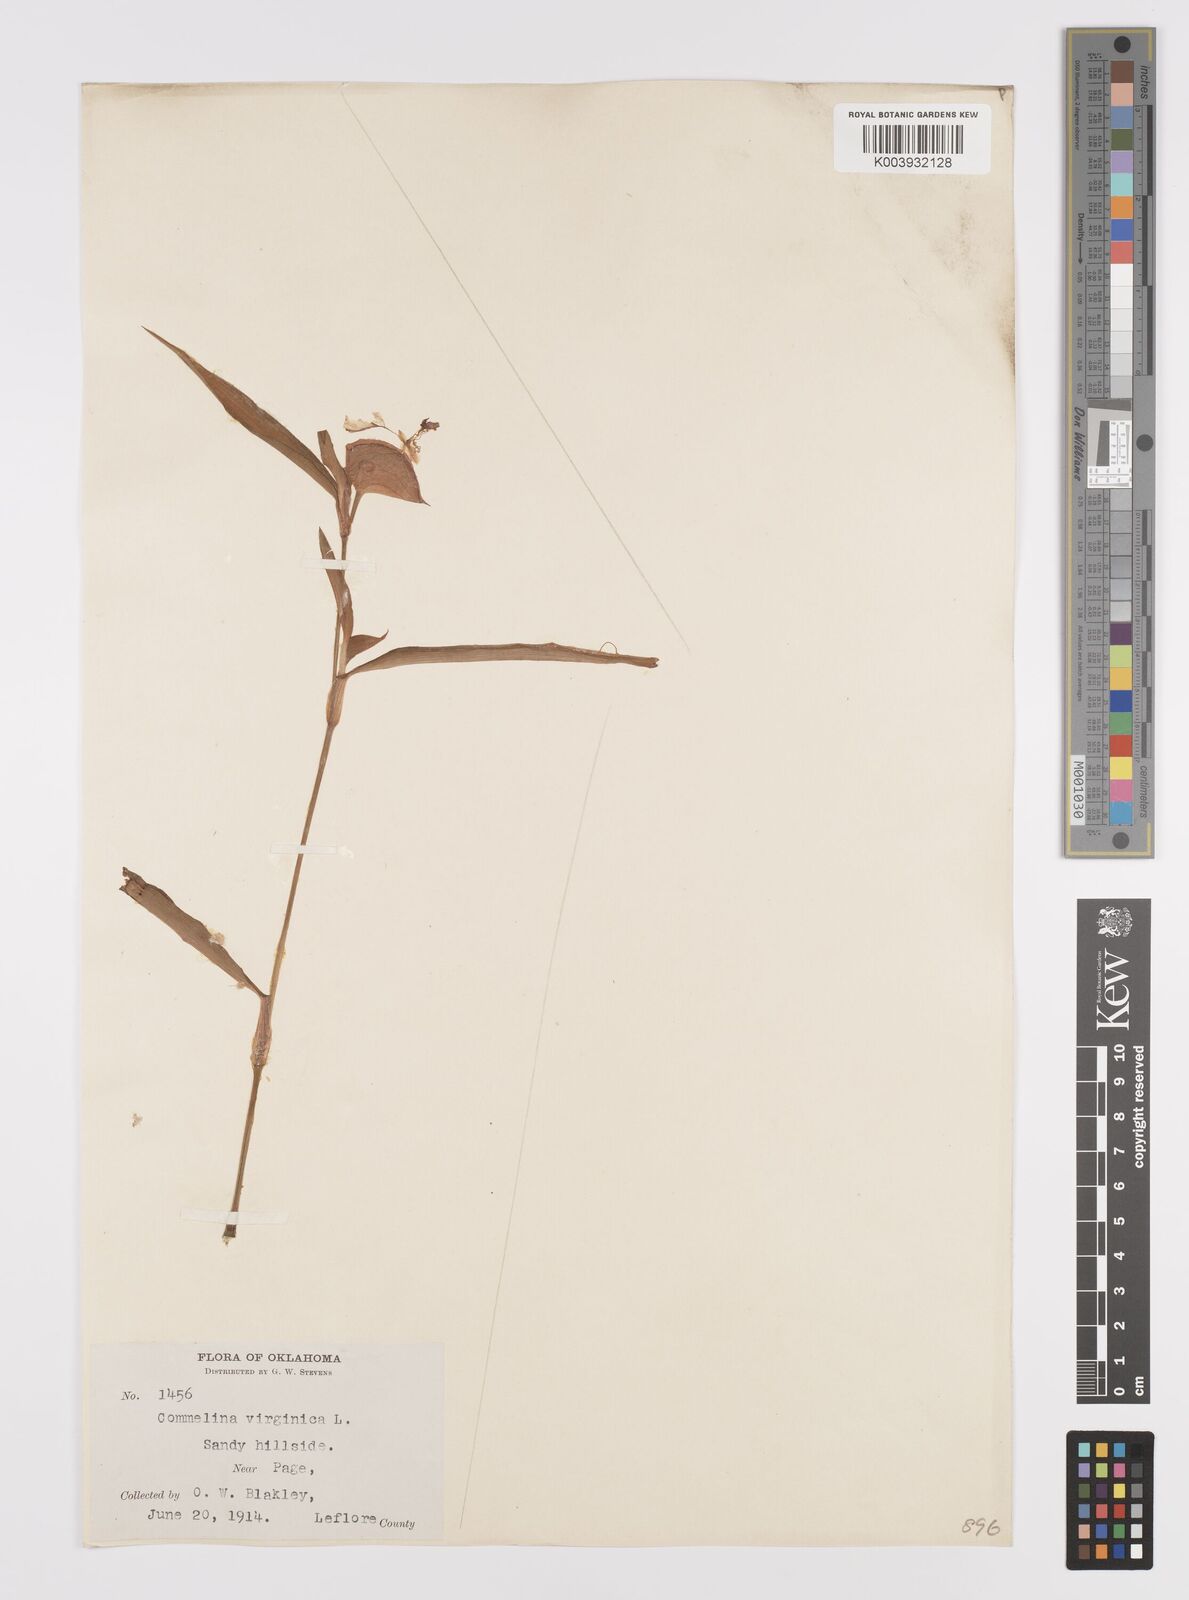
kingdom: Plantae
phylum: Tracheophyta
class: Liliopsida
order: Commelinales
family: Commelinaceae
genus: Commelina
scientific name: Commelina erecta
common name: Blousel blommetjie
